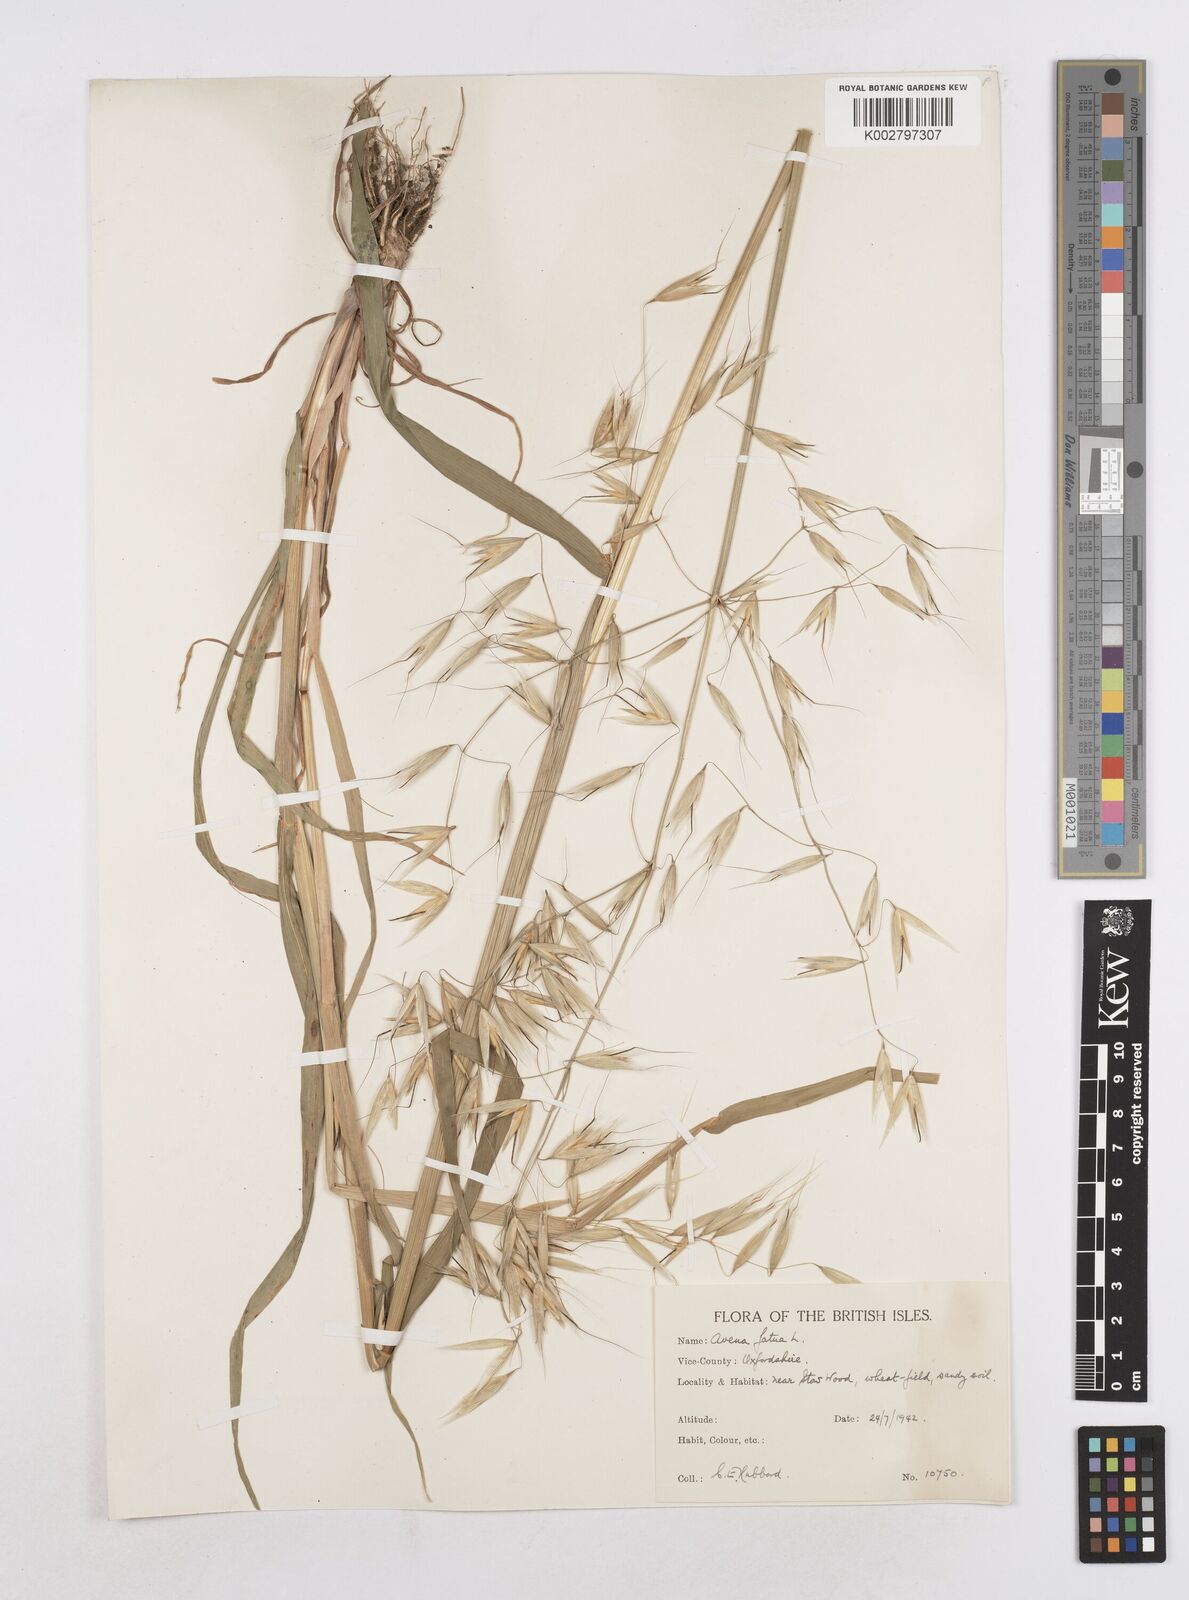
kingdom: Plantae
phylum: Tracheophyta
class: Liliopsida
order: Poales
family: Poaceae
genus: Avena
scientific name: Avena fatua
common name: Wild oat
